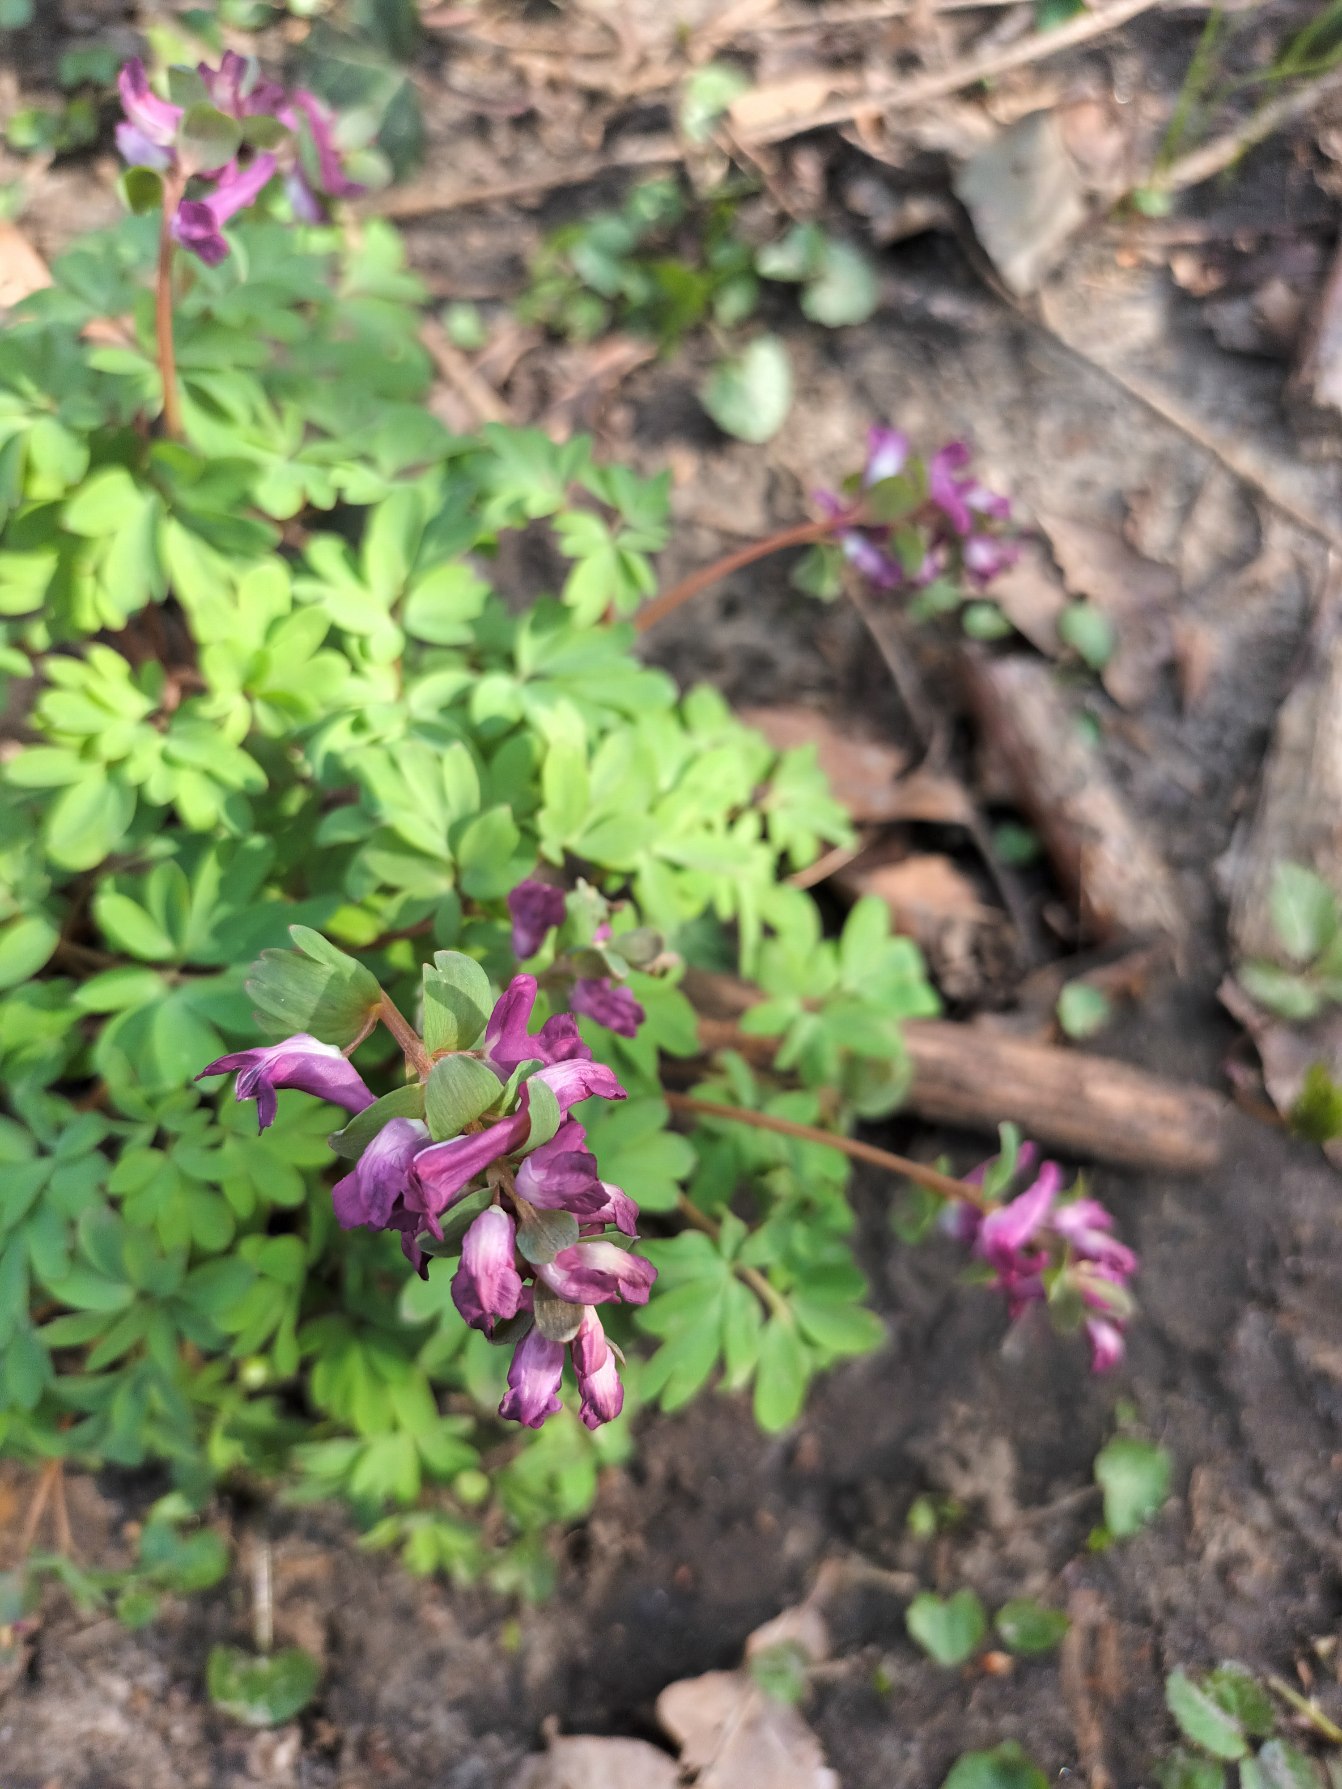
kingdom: Plantae
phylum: Tracheophyta
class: Magnoliopsida
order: Ranunculales
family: Papaveraceae
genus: Corydalis
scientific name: Corydalis
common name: Lærkespore (Corydalis-slægten)
